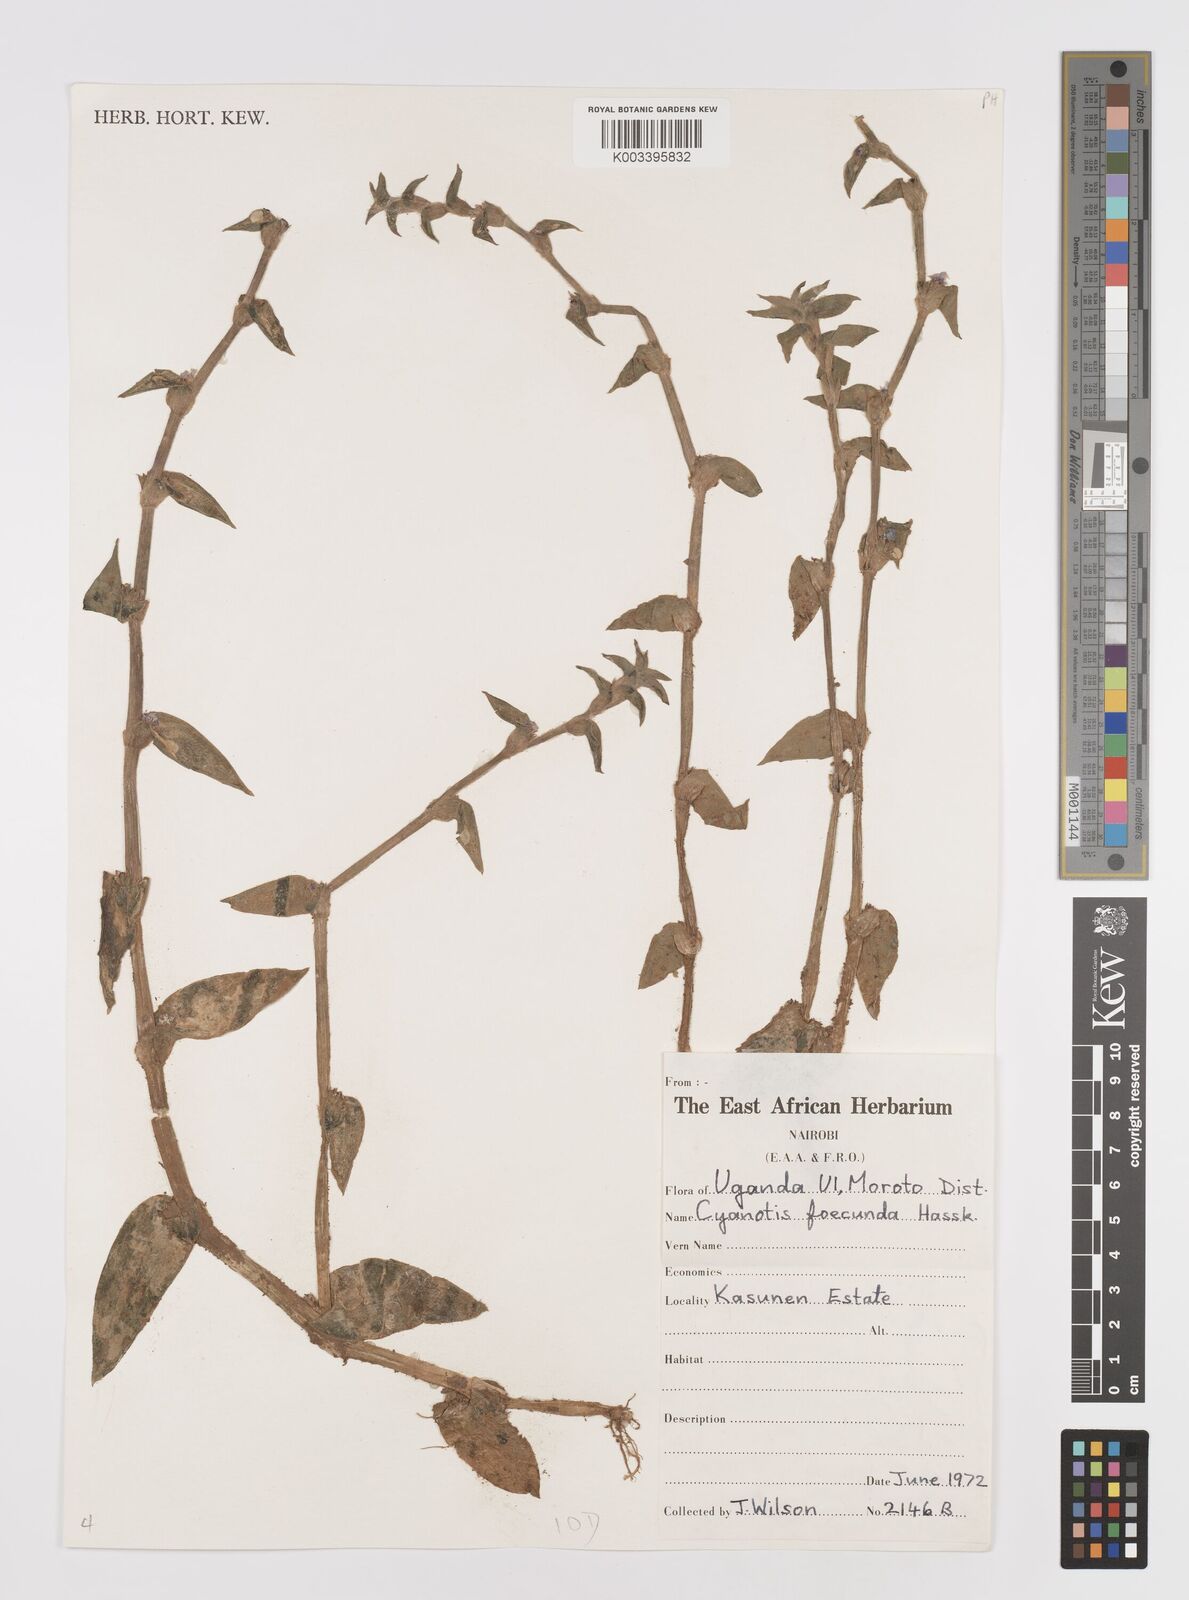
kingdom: Plantae
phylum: Tracheophyta
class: Liliopsida
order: Commelinales
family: Commelinaceae
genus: Cyanotis
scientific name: Cyanotis foecunda
